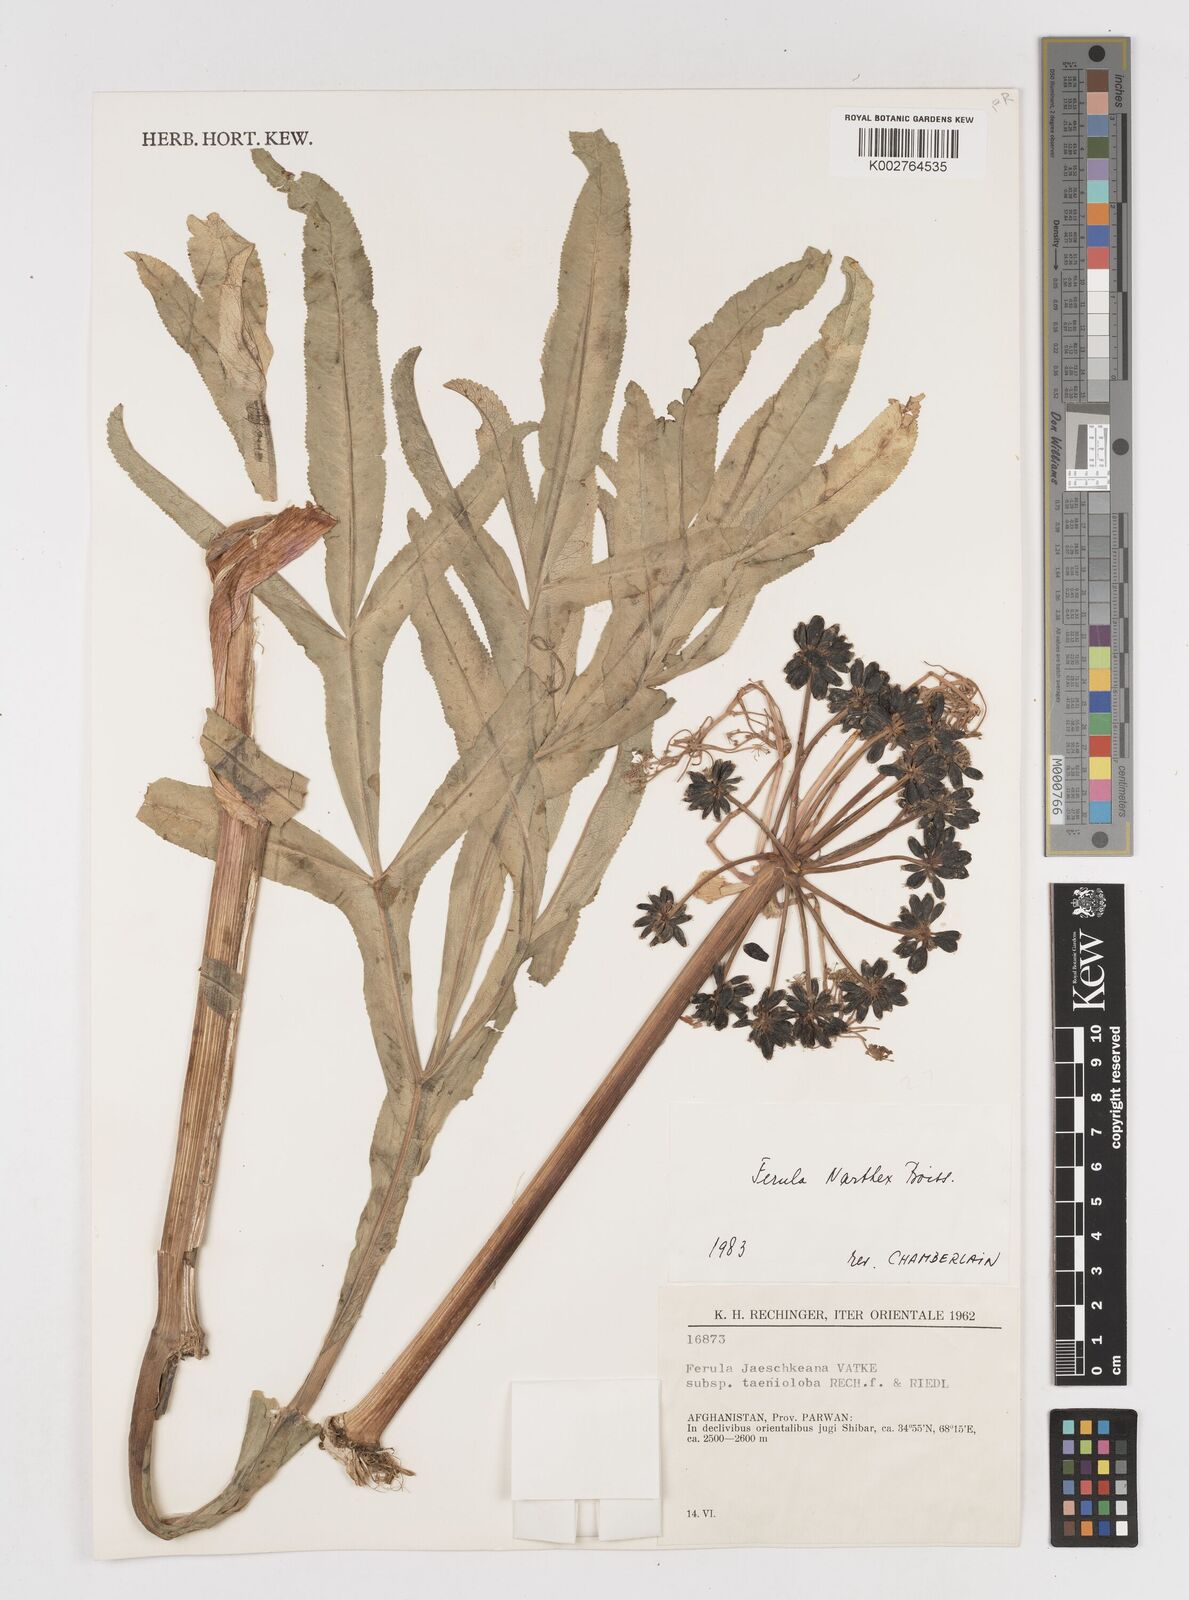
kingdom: Plantae
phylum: Tracheophyta
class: Magnoliopsida
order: Apiales
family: Apiaceae
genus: Ferula
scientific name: Ferula narthex
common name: Hing asafetida
